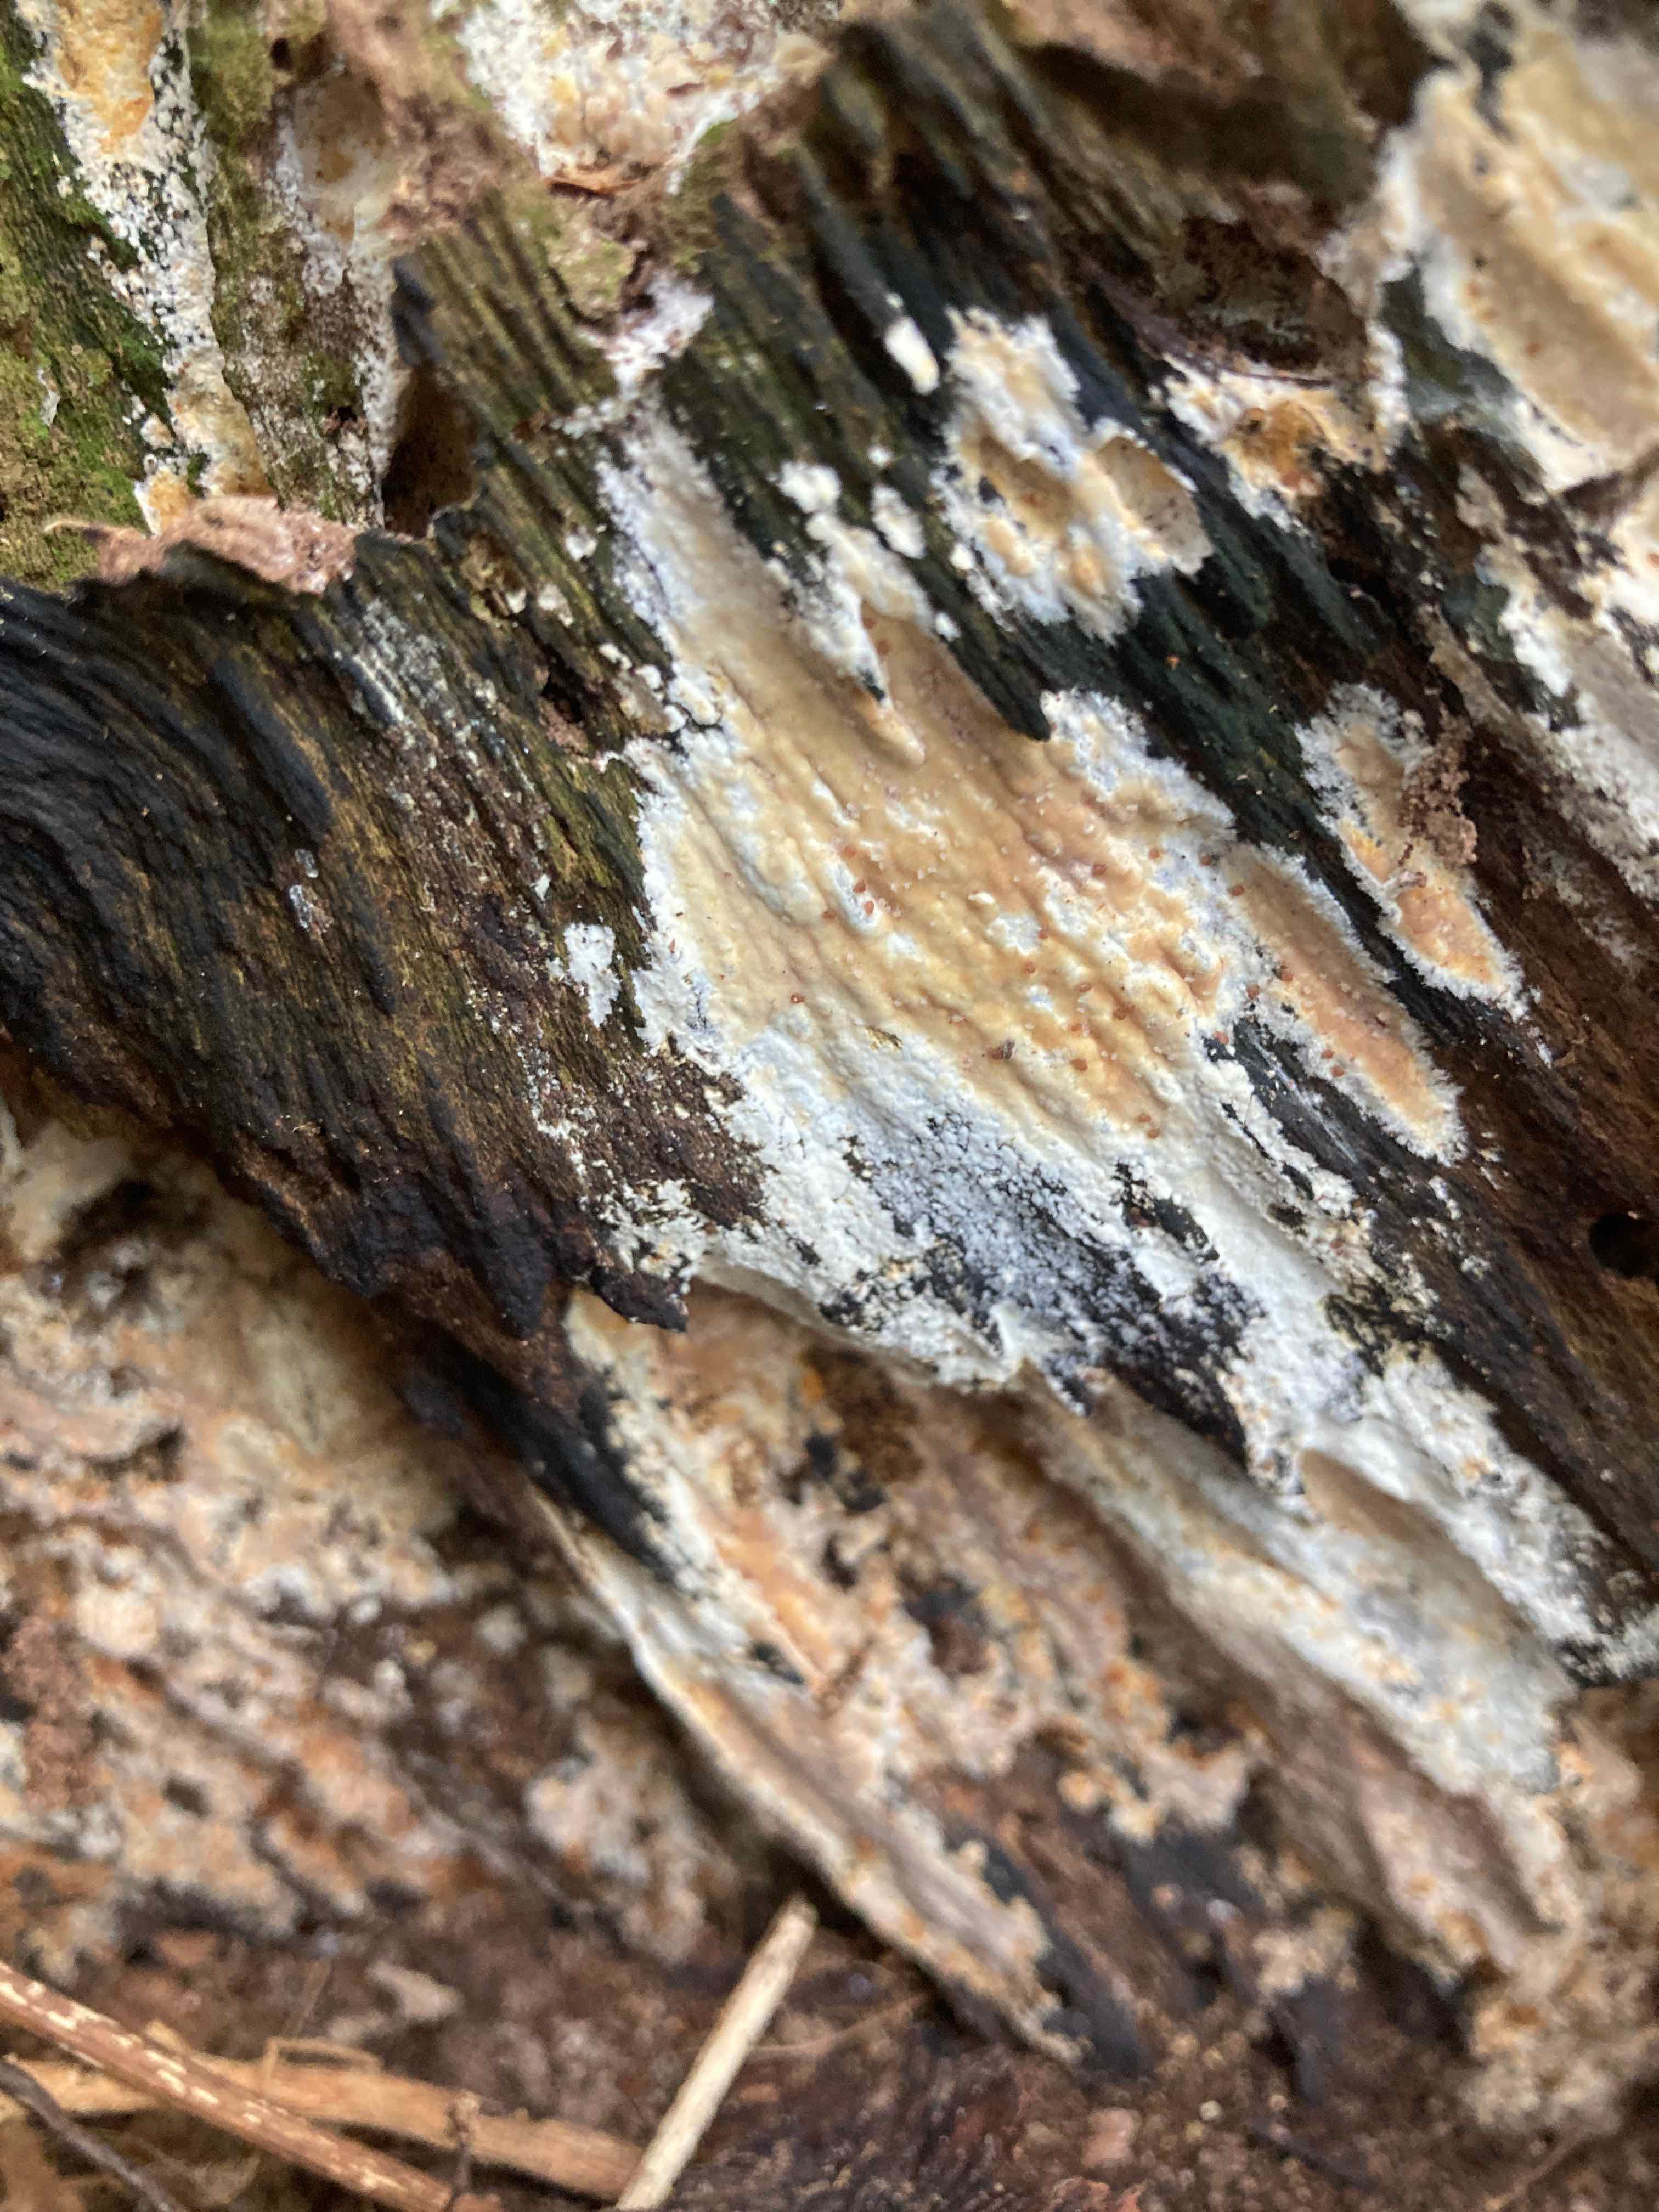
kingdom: Fungi
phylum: Basidiomycota
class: Agaricomycetes
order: Russulales
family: Peniophoraceae
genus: Gloiothele
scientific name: Gloiothele lactescens
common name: bitter olieskind
